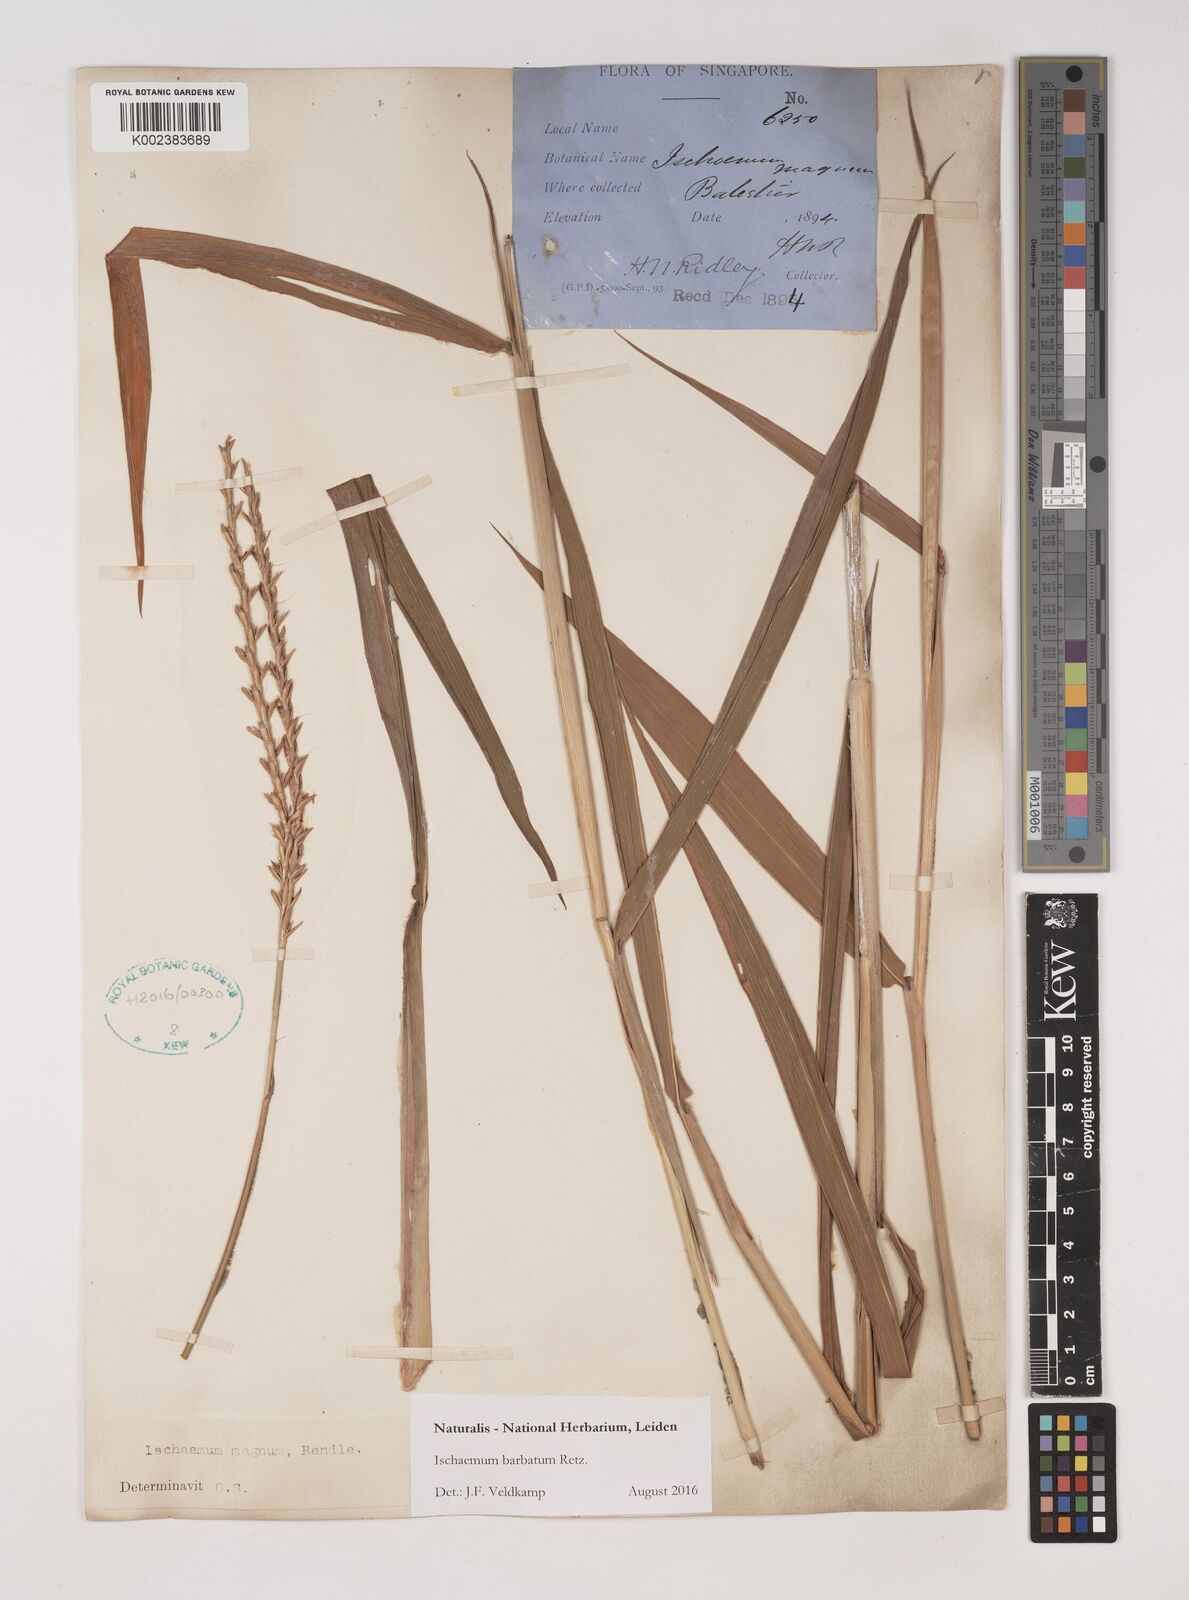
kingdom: Plantae
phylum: Tracheophyta
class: Liliopsida
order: Poales
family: Poaceae
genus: Ischaemum
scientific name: Ischaemum barbatum
